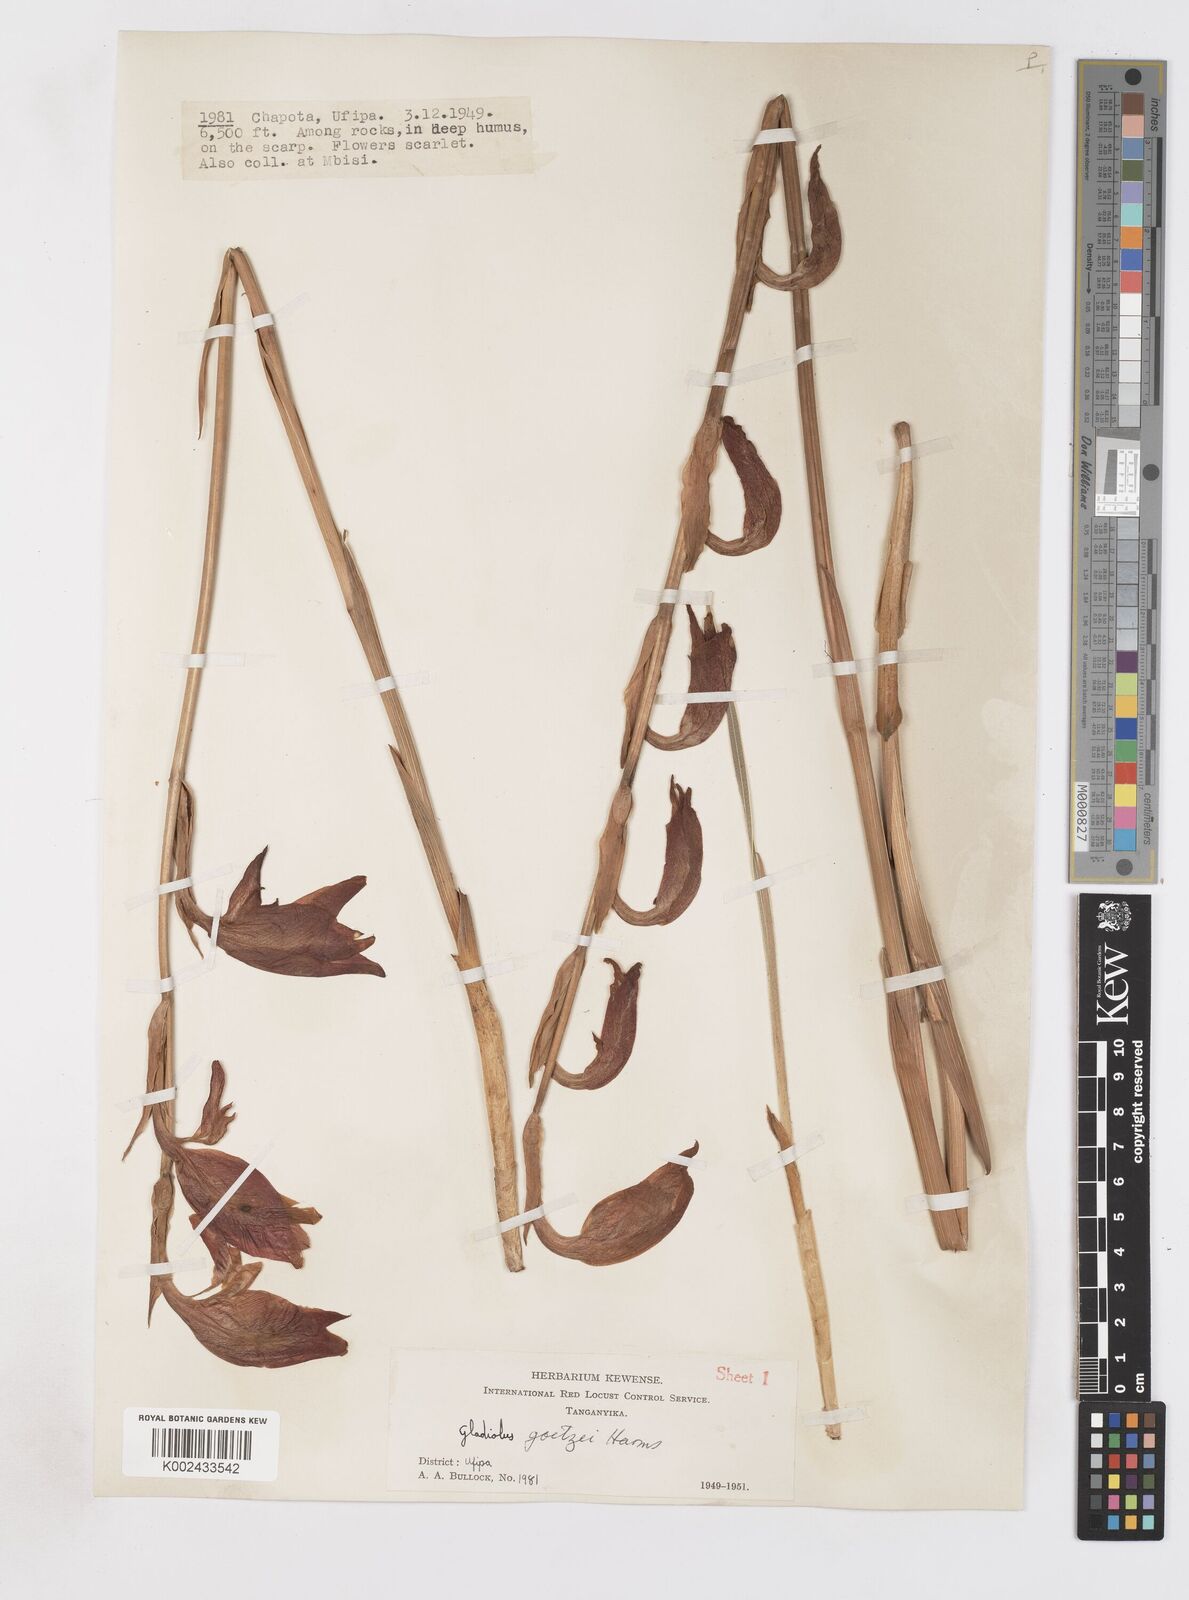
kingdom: Plantae
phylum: Tracheophyta
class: Liliopsida
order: Asparagales
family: Iridaceae
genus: Gladiolus
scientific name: Gladiolus dalenii
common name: Cornflag
